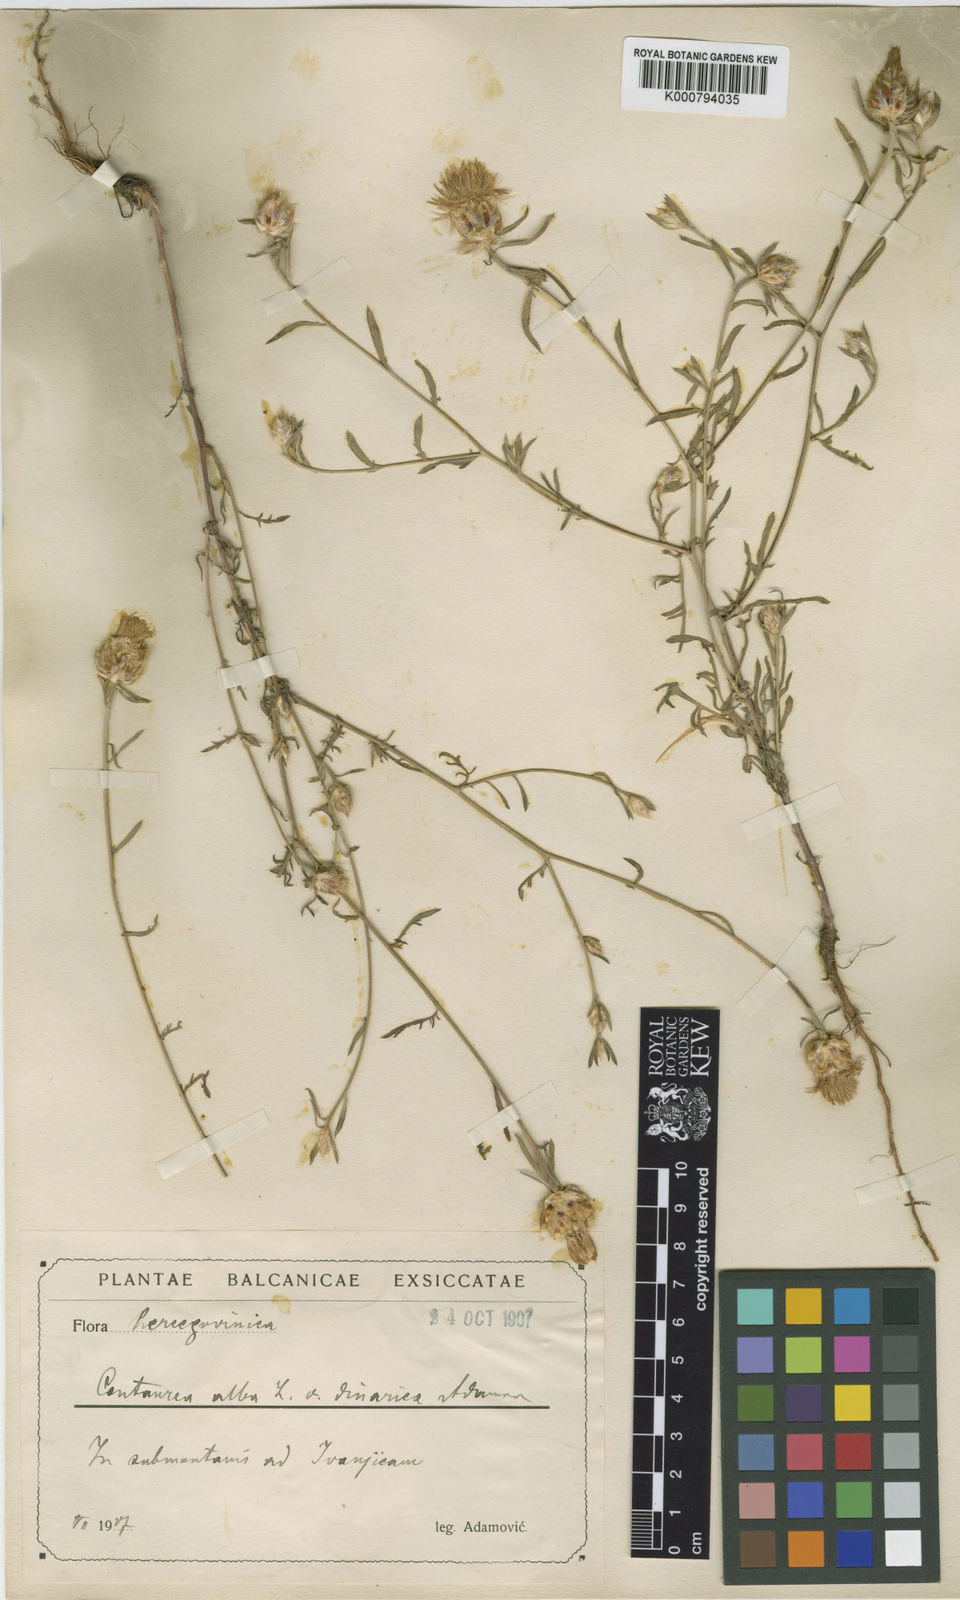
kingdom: Plantae
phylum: Tracheophyta
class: Magnoliopsida
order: Asterales
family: Asteraceae
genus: Centaurea
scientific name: Centaurea deusta
